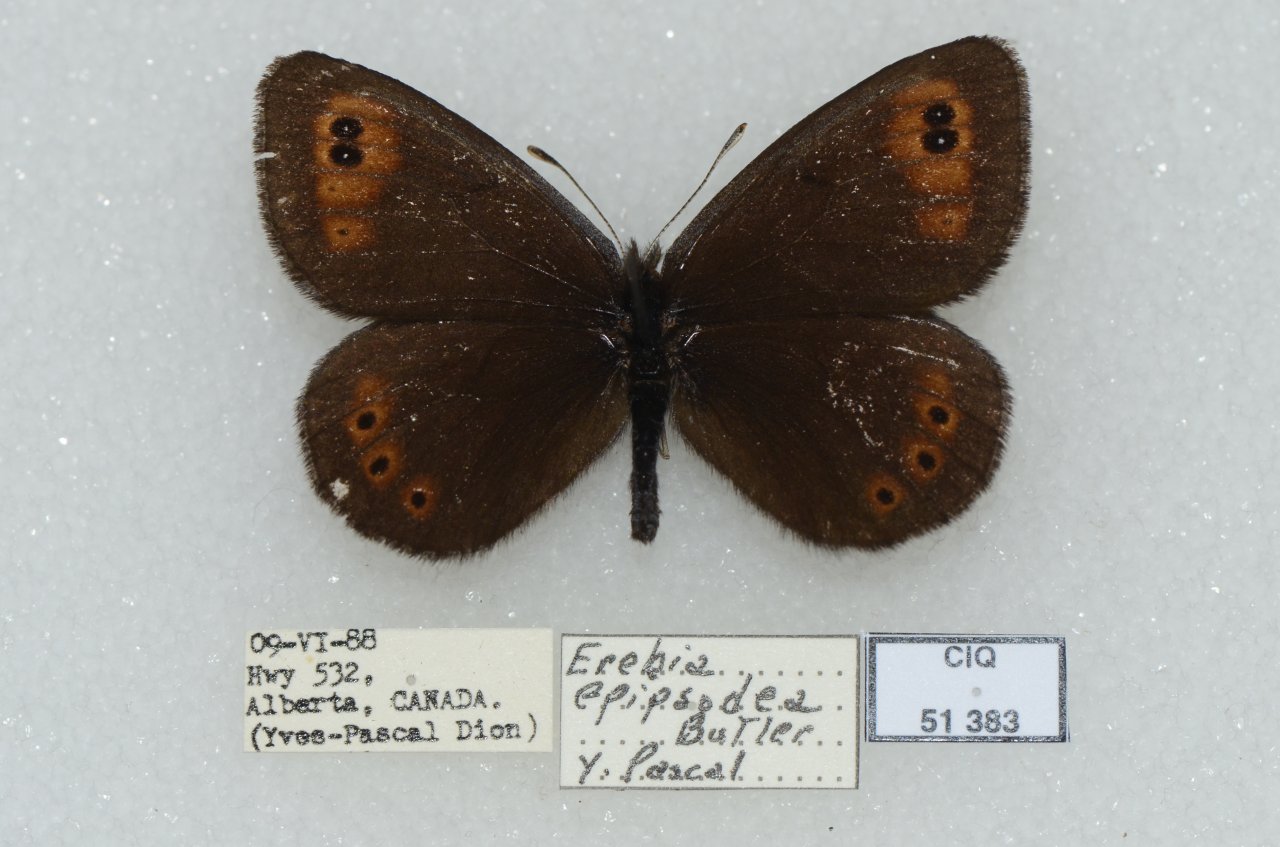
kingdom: Animalia
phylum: Arthropoda
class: Insecta
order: Lepidoptera
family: Nymphalidae
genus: Erebia
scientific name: Erebia epipsodea
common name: Common Alpine
